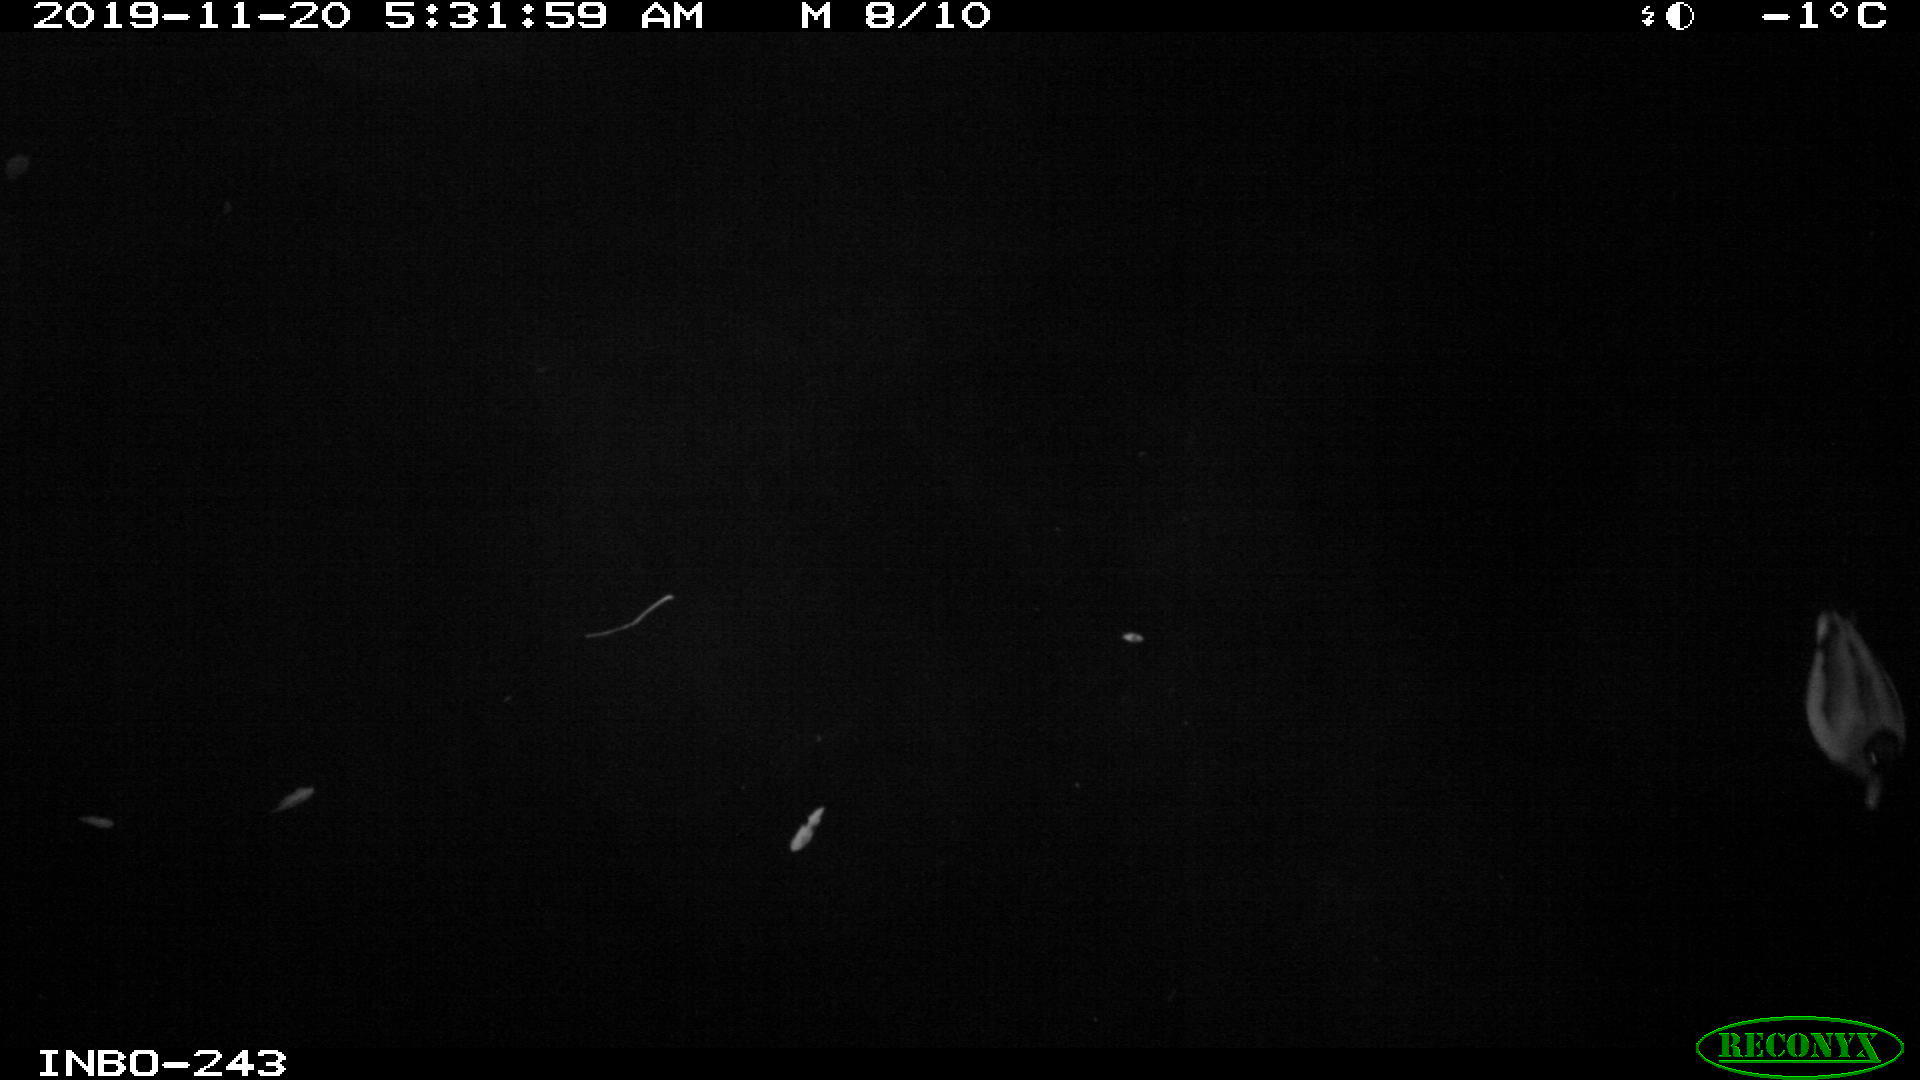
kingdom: Animalia
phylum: Chordata
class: Aves
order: Anseriformes
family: Anatidae
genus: Anas
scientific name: Anas platyrhynchos
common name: Mallard
